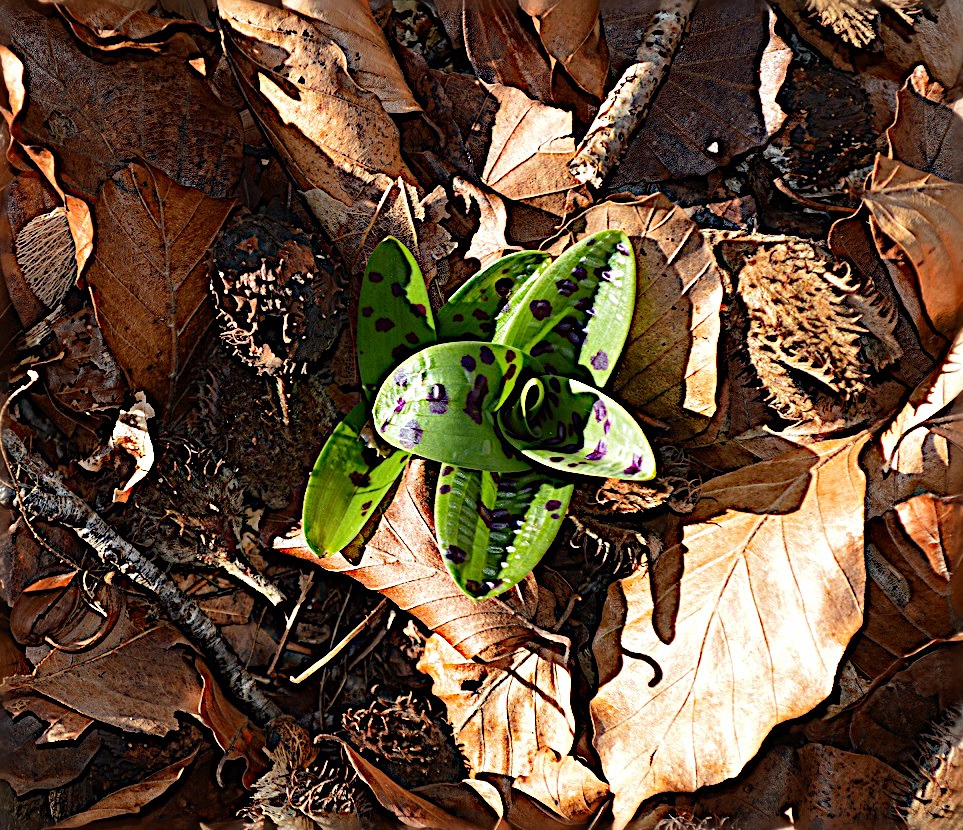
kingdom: Plantae
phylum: Tracheophyta
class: Liliopsida
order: Asparagales
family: Orchidaceae
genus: Orchis
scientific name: Orchis mascula
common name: Tyndakset gøgeurt
